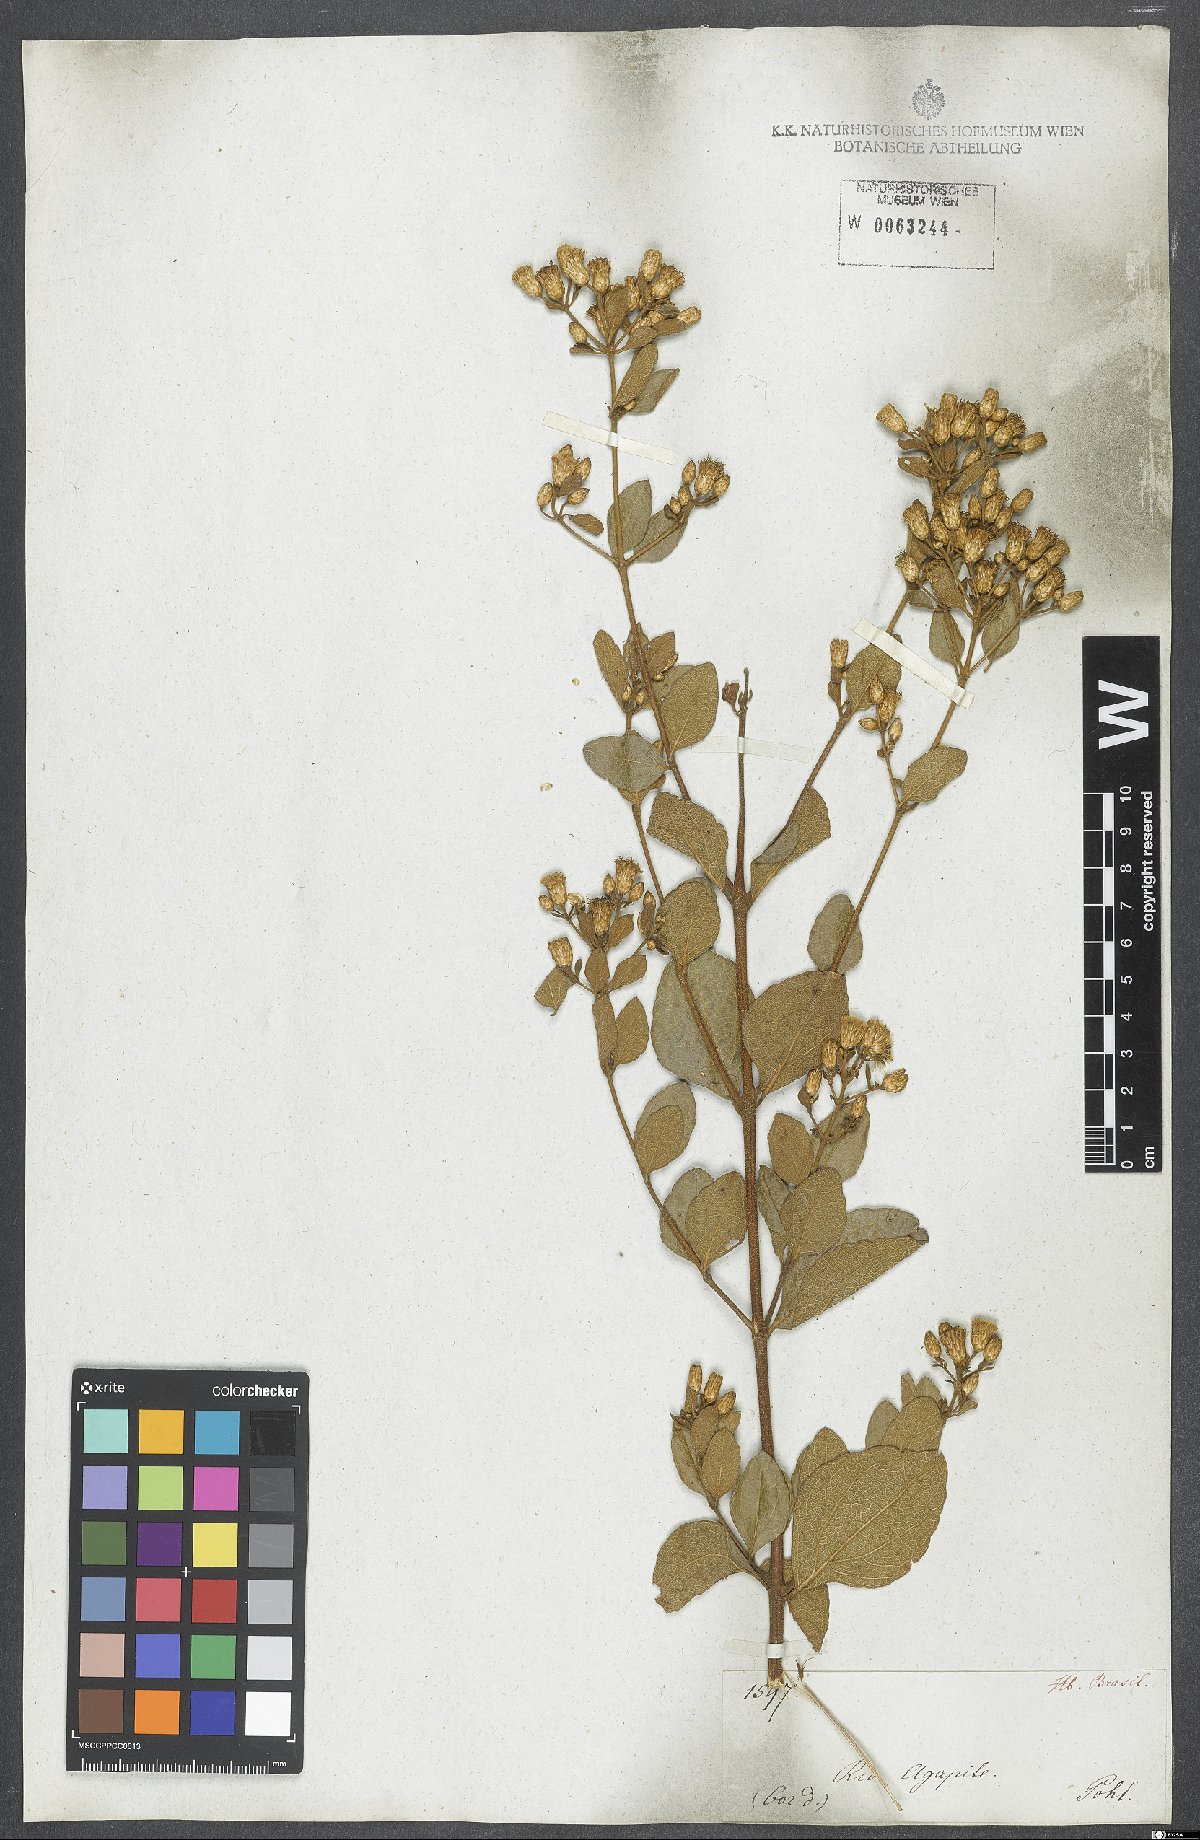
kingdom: Plantae
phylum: Tracheophyta
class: Magnoliopsida
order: Asterales
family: Asteraceae
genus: Chromolaena
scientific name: Chromolaena squalida
